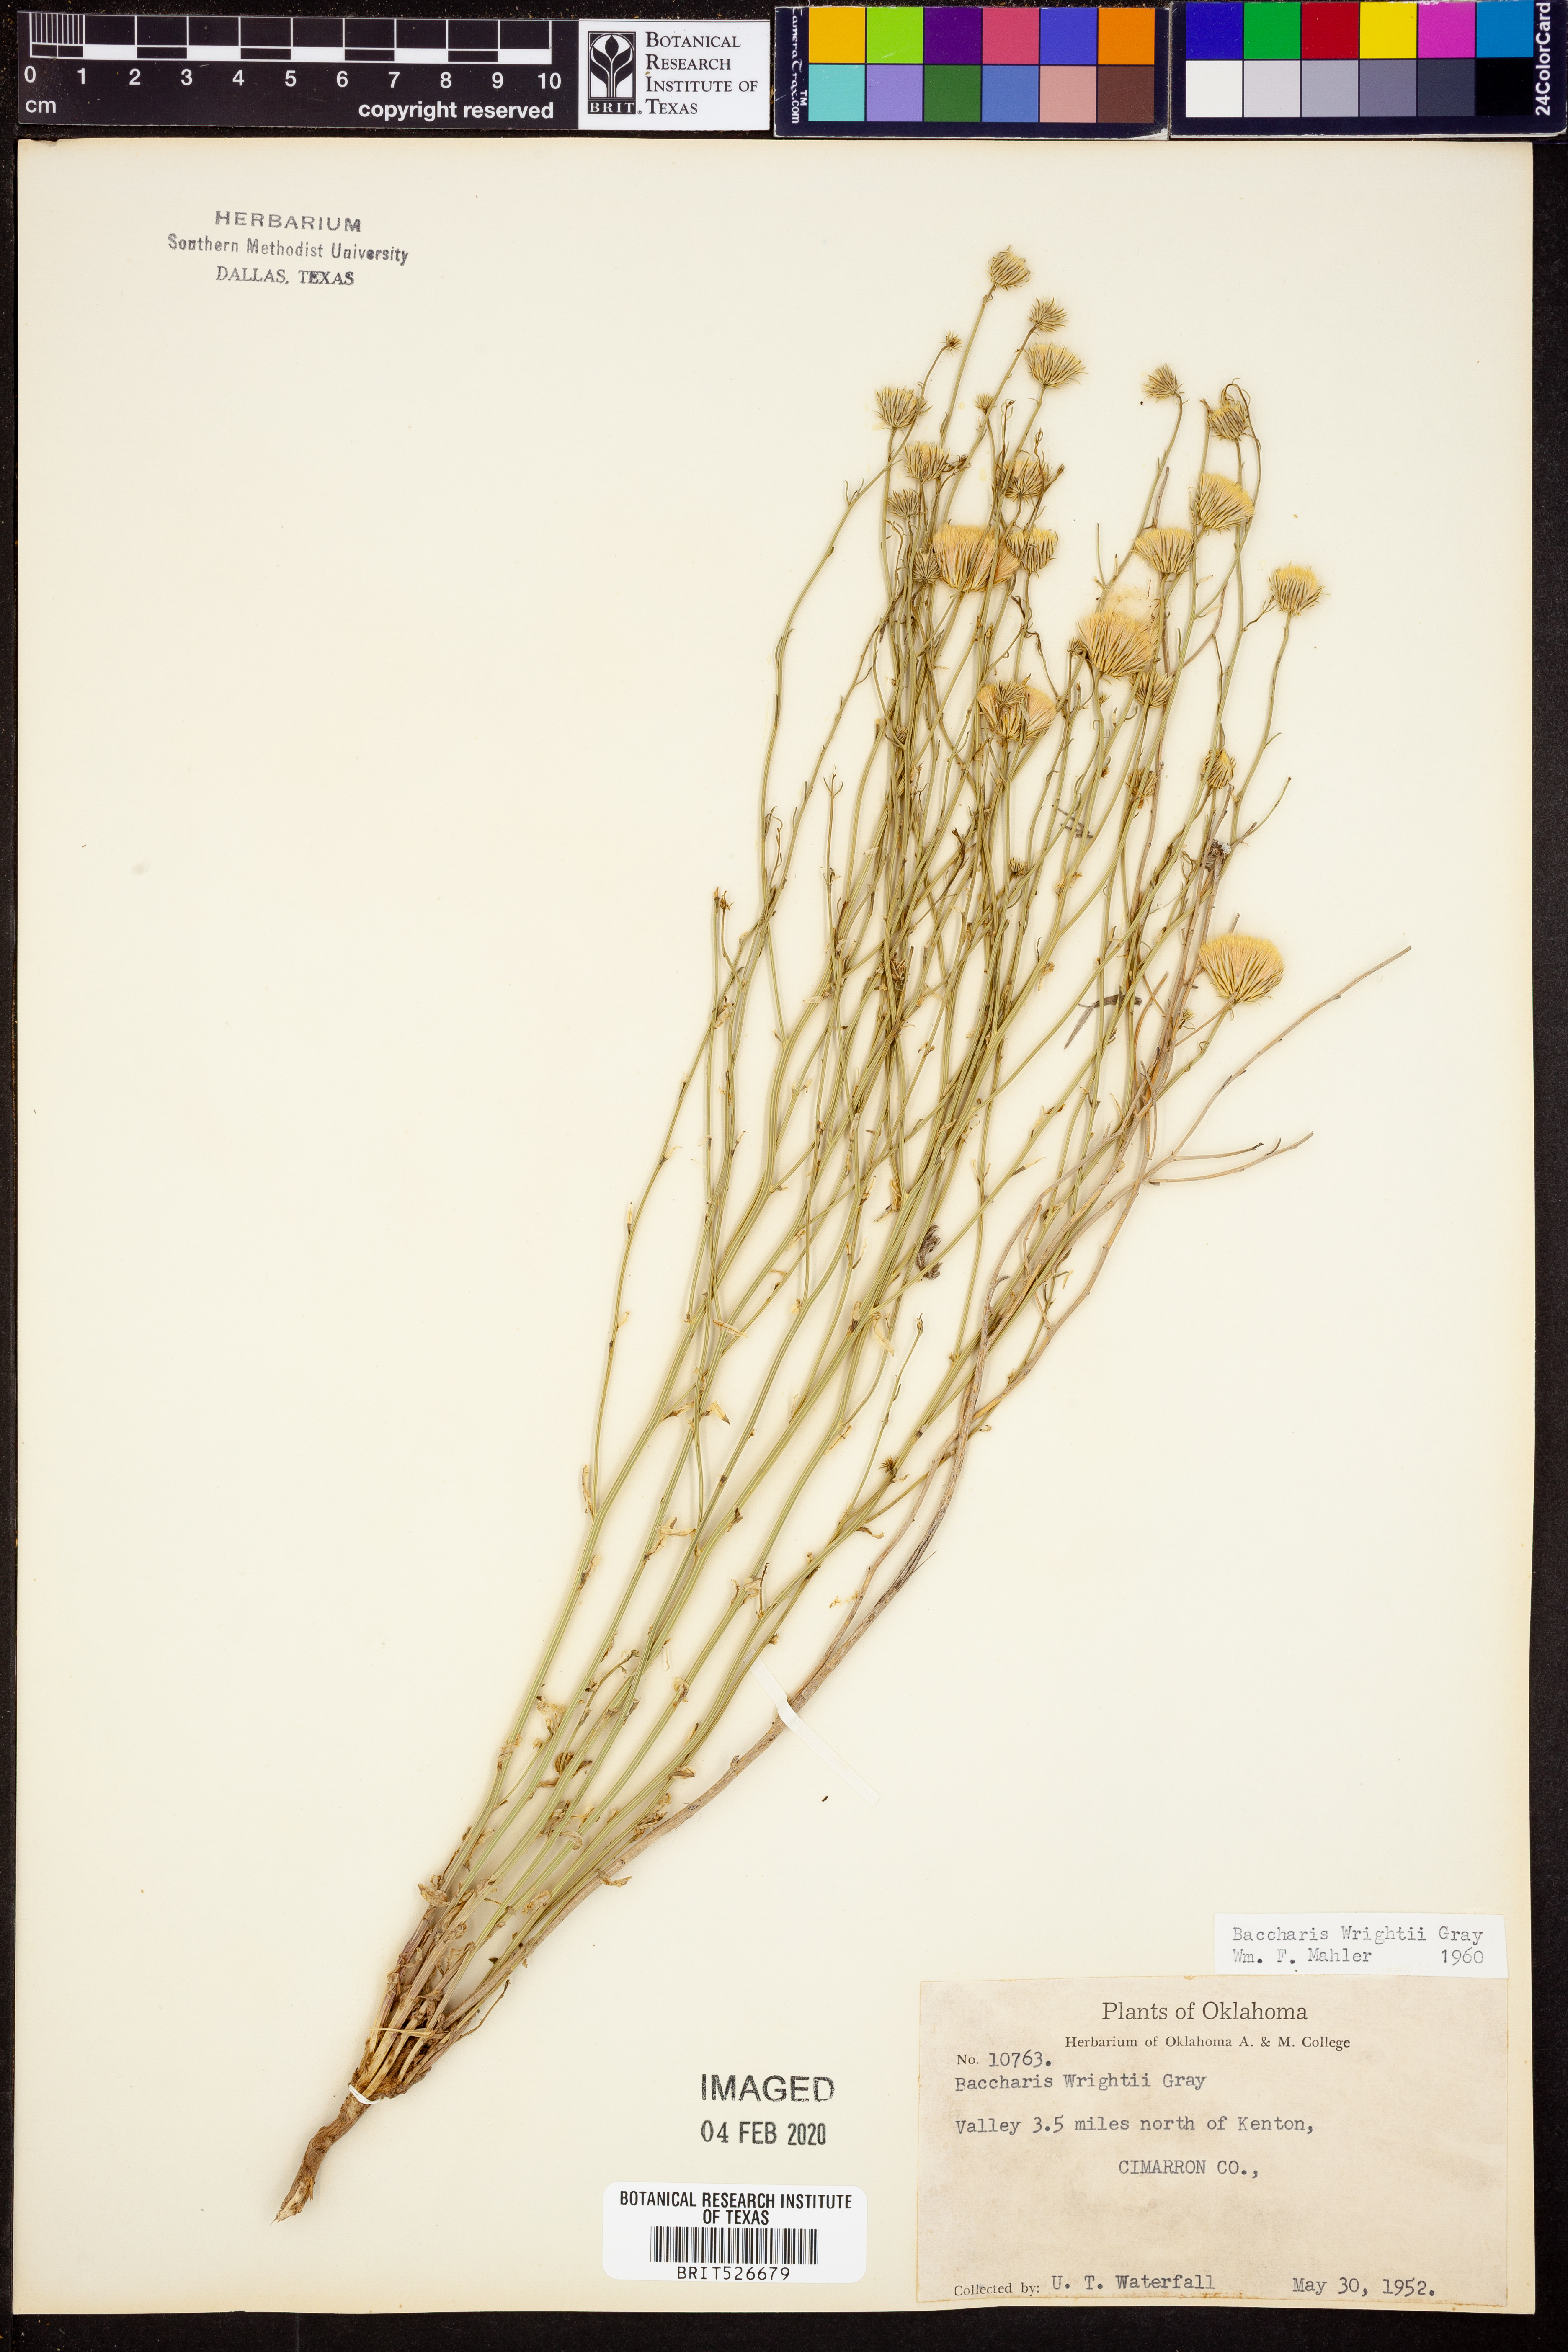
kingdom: Plantae
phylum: Tracheophyta
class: Magnoliopsida
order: Asterales
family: Asteraceae
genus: Baccharis
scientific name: Baccharis wrightii
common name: Wright's baccharis
